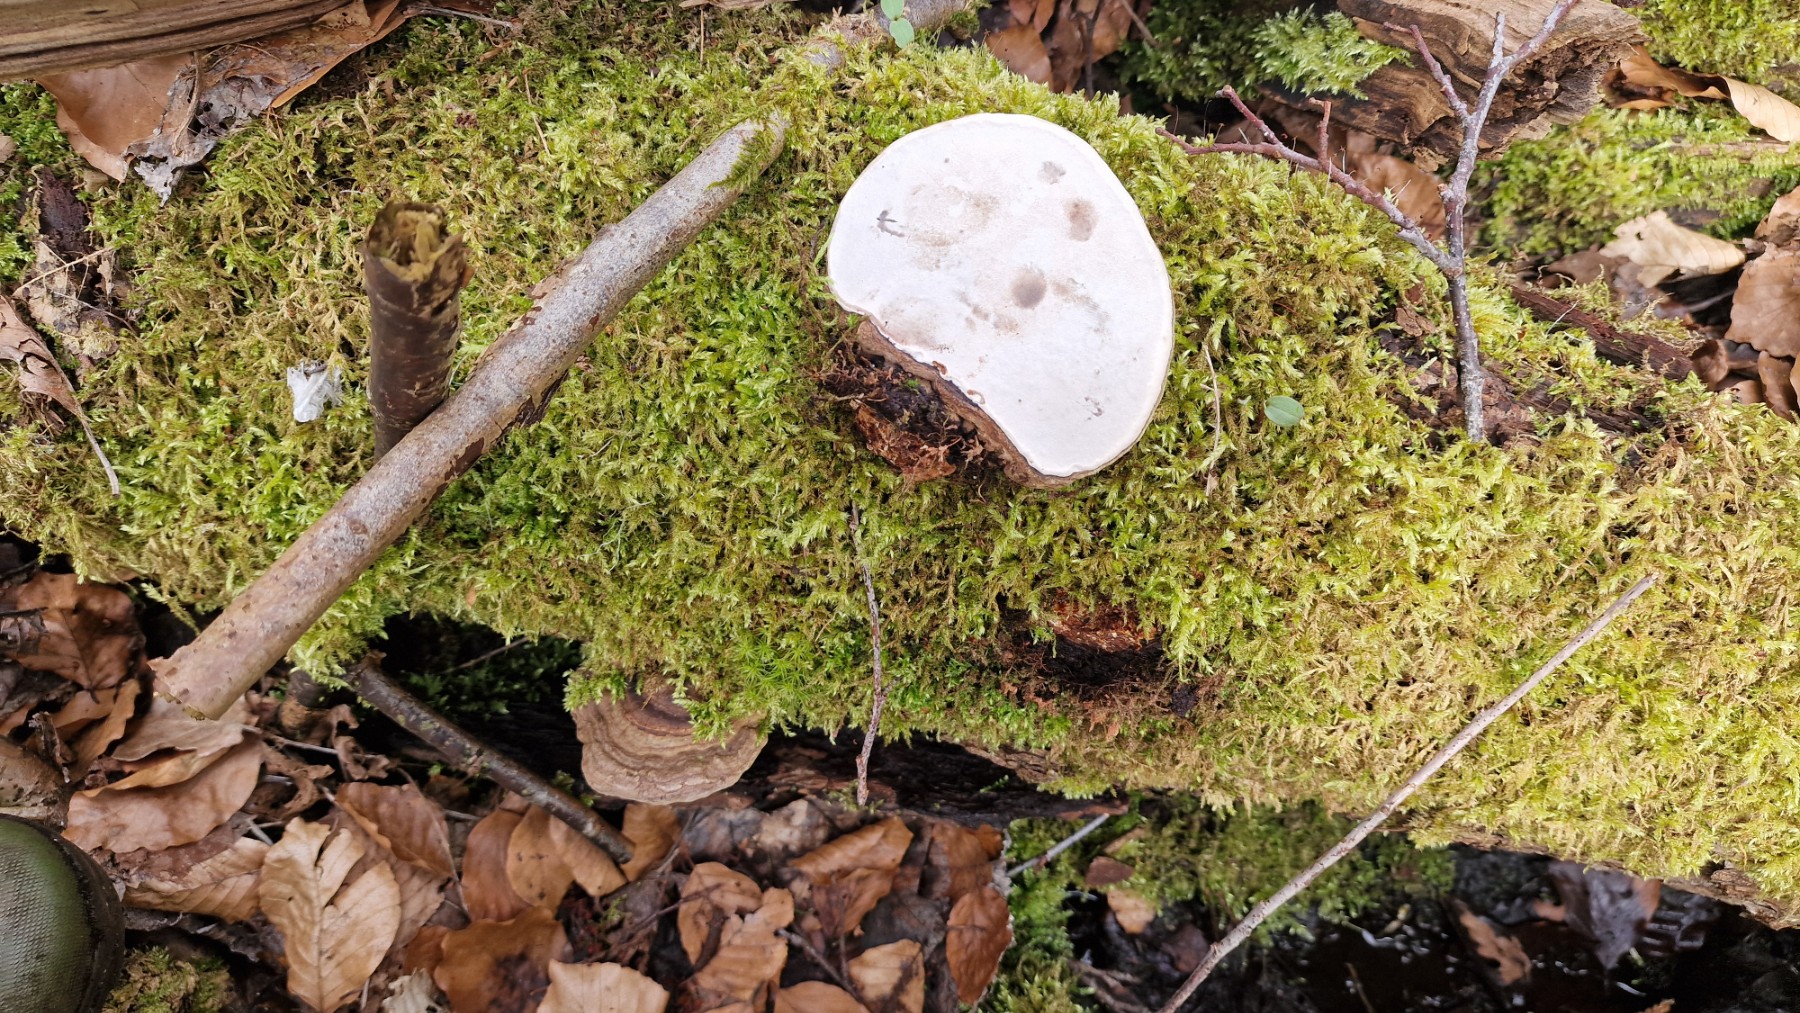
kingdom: Fungi
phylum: Basidiomycota
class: Agaricomycetes
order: Polyporales
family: Polyporaceae
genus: Ganoderma
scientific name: Ganoderma applanatum
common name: flad lakporesvamp
